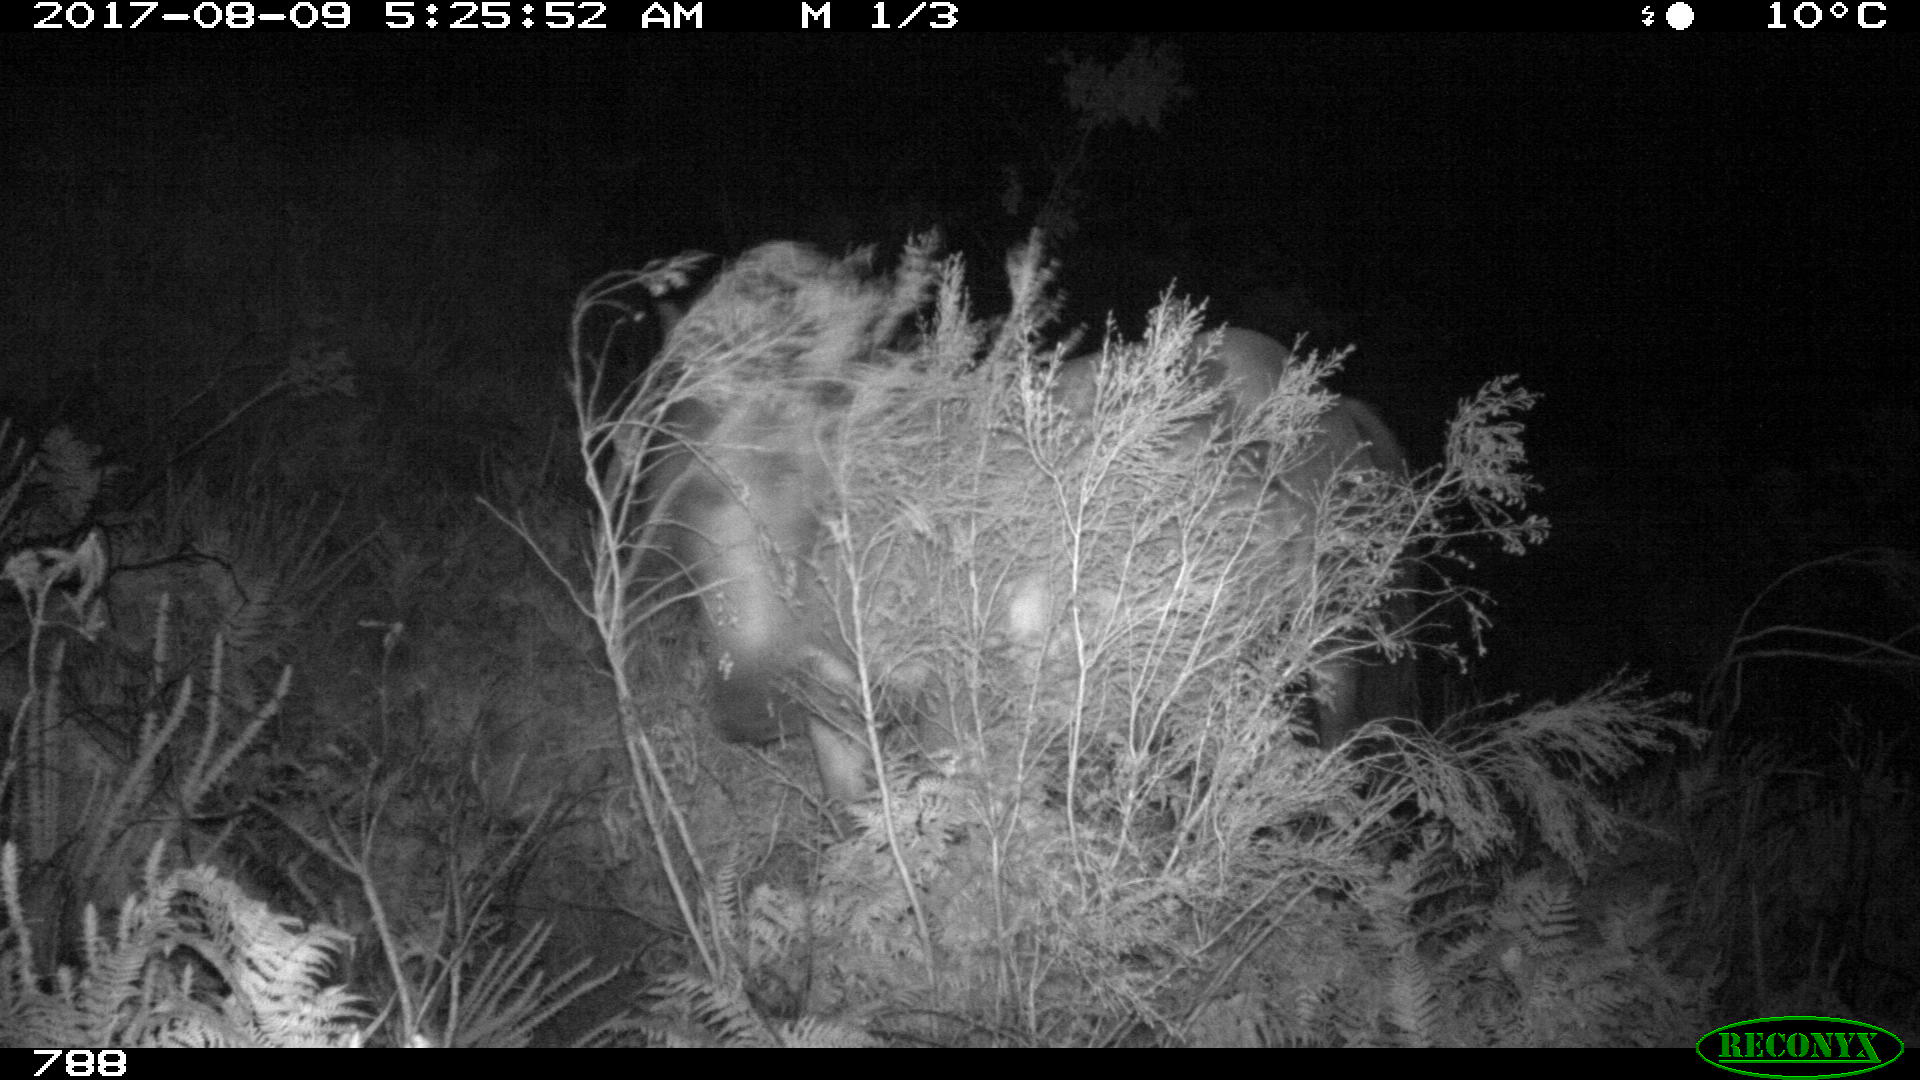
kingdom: Animalia
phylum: Chordata
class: Mammalia
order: Perissodactyla
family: Equidae
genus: Equus
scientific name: Equus caballus
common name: Horse
